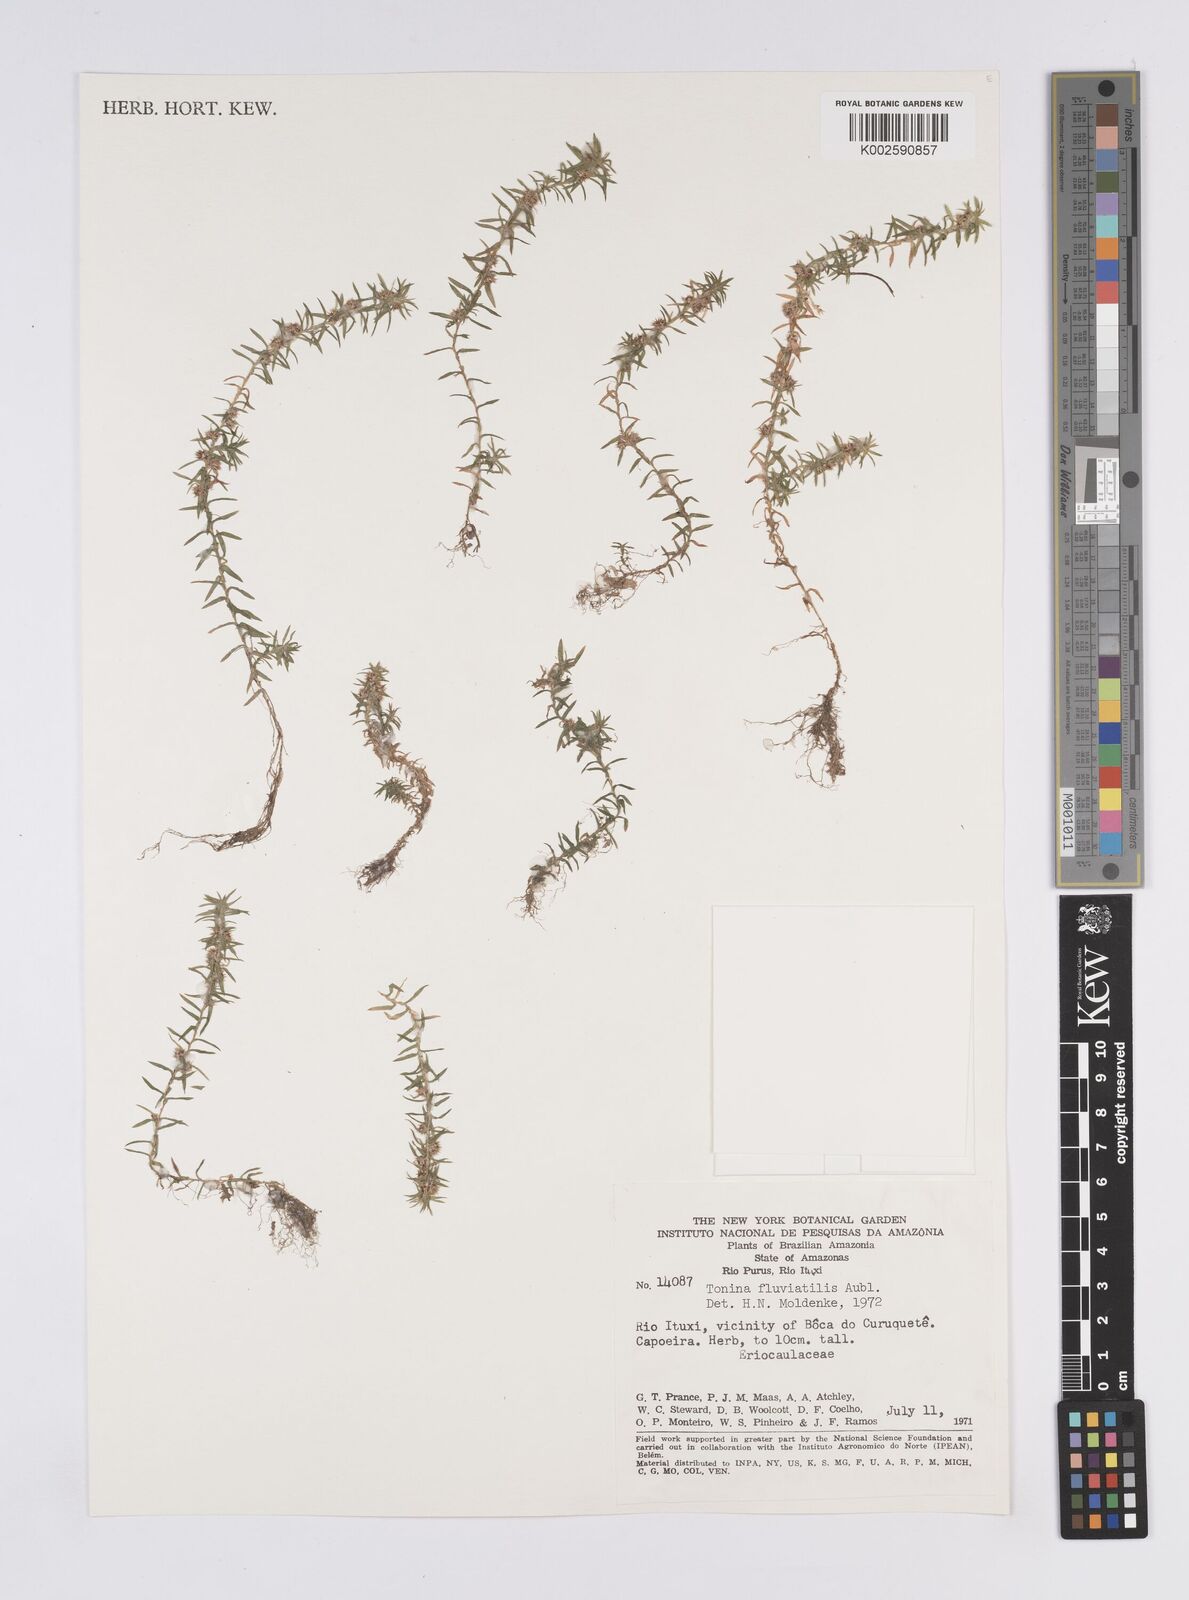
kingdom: Plantae
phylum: Tracheophyta
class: Liliopsida
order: Poales
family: Eriocaulaceae
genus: Paepalanthus
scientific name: Paepalanthus fluviatilis
